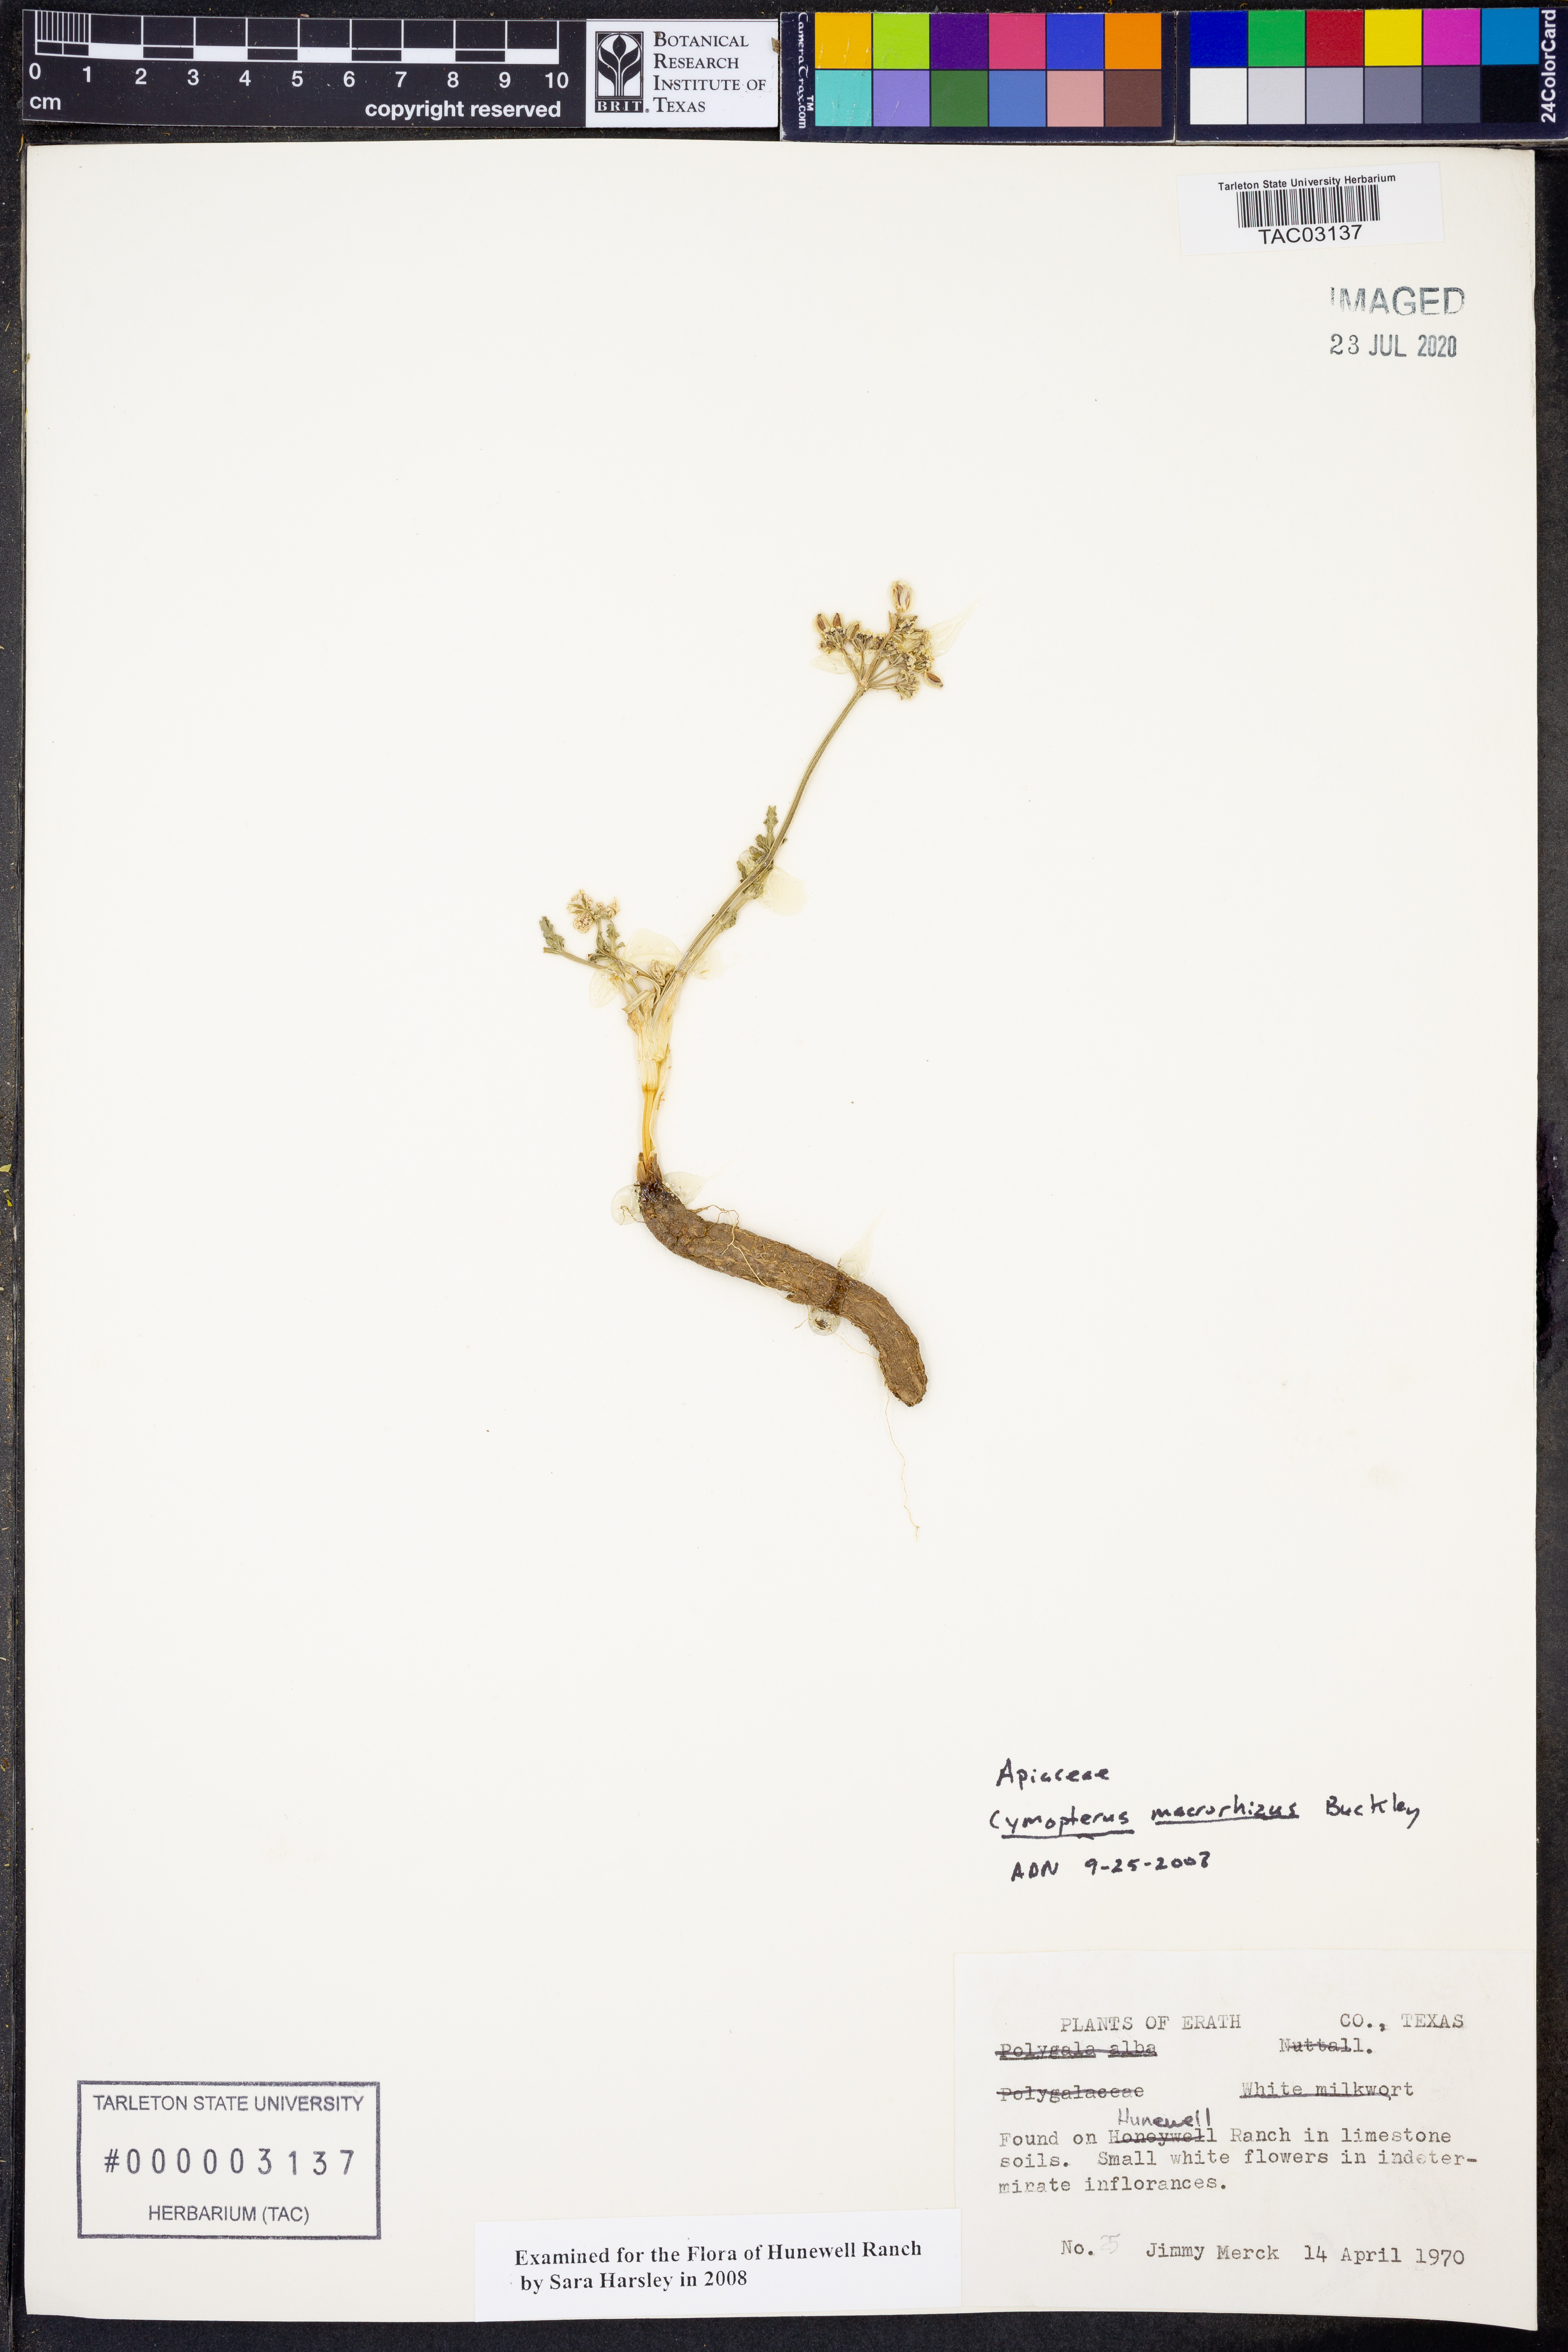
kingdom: Plantae
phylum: Tracheophyta
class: Magnoliopsida
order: Apiales
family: Apiaceae
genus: Vesper
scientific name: Vesper macrorhizus
